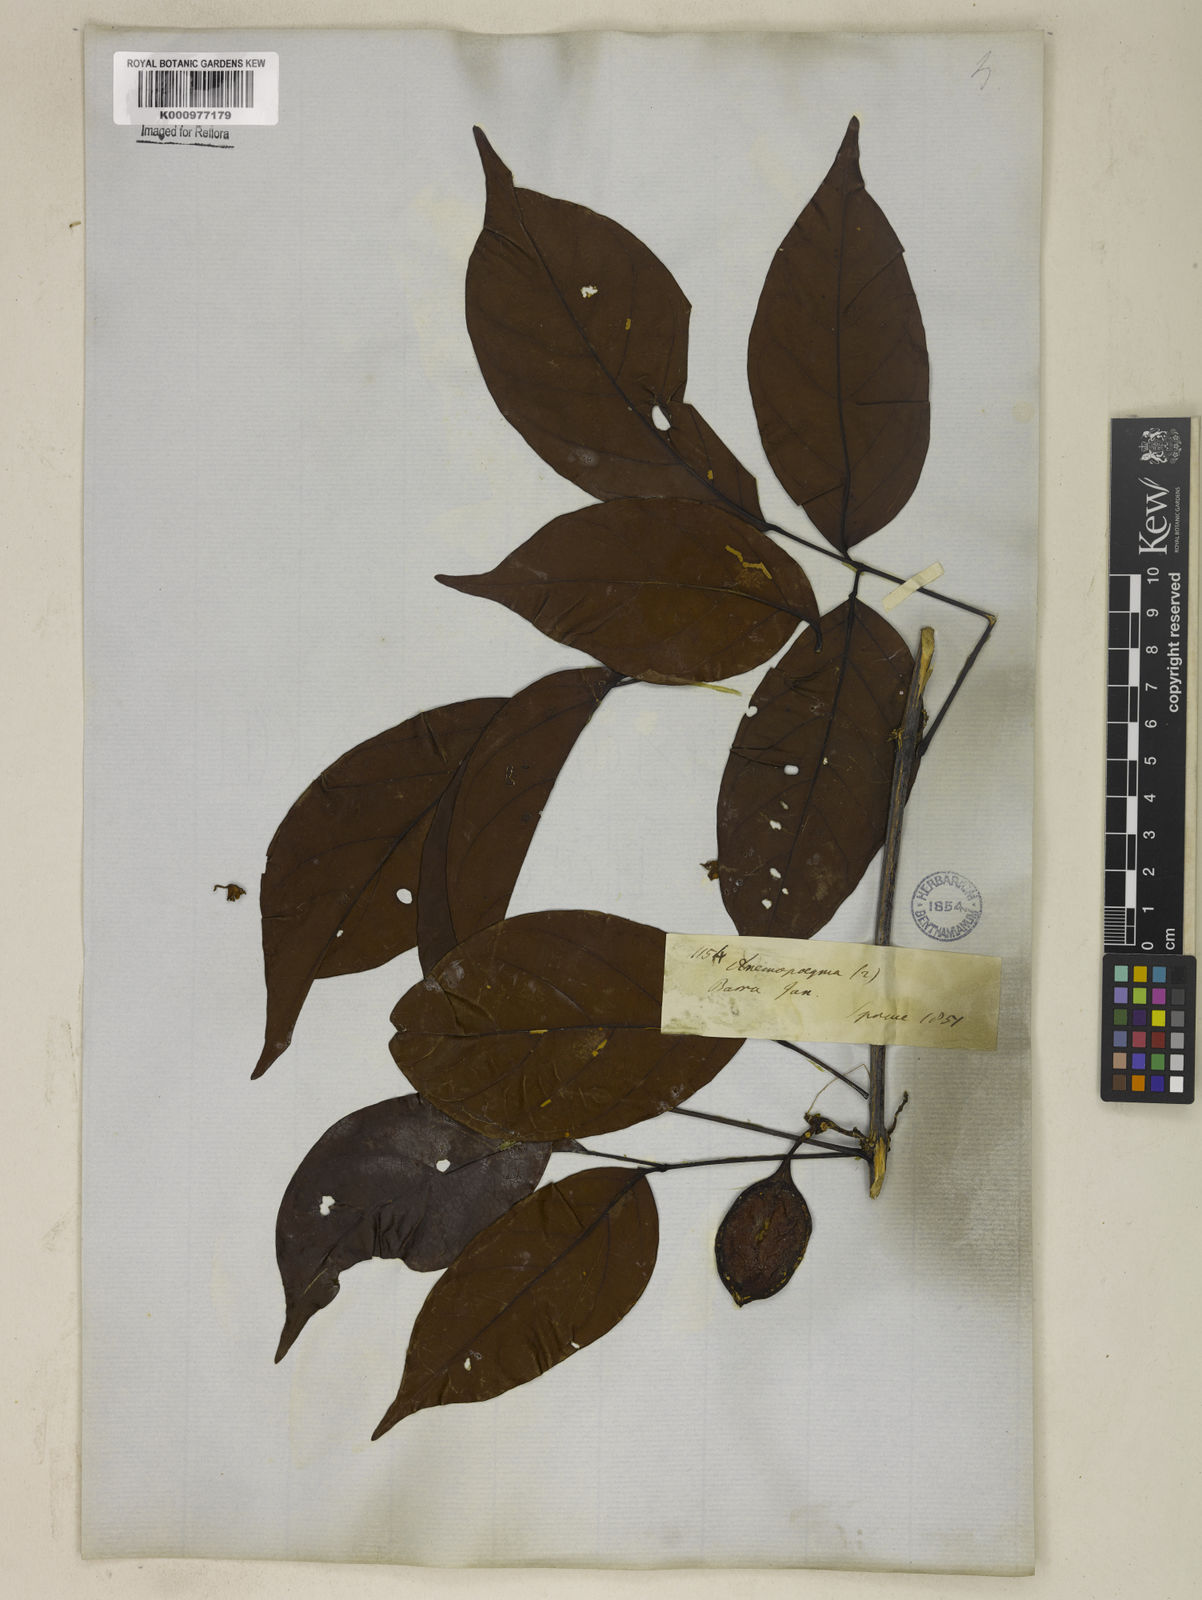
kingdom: Plantae
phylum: Tracheophyta
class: Magnoliopsida
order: Lamiales
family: Bignoniaceae
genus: Anemopaegma
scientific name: Anemopaegma floridum
